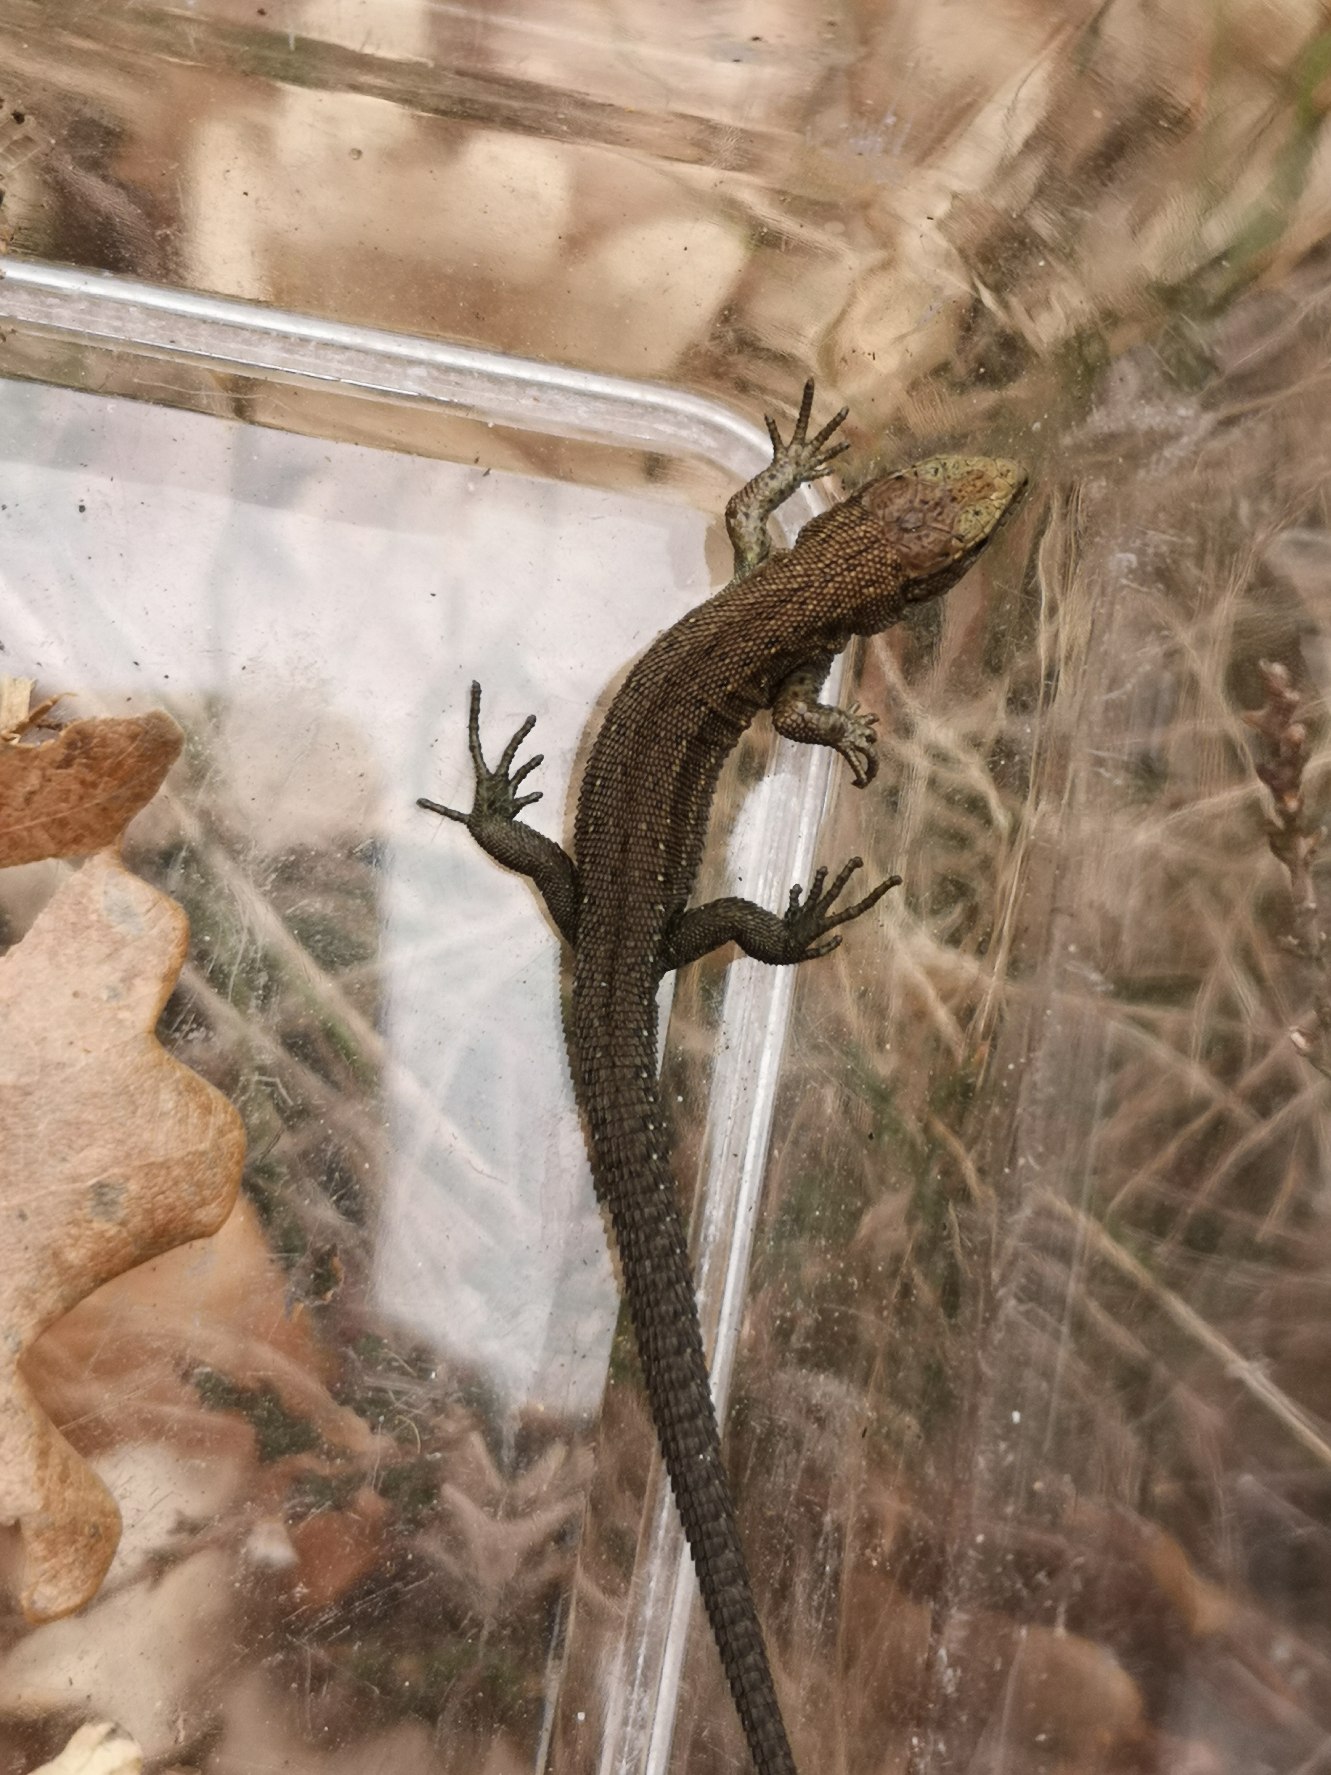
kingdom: Animalia
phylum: Chordata
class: Squamata
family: Lacertidae
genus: Zootoca
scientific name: Zootoca vivipara
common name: Skovfirben
